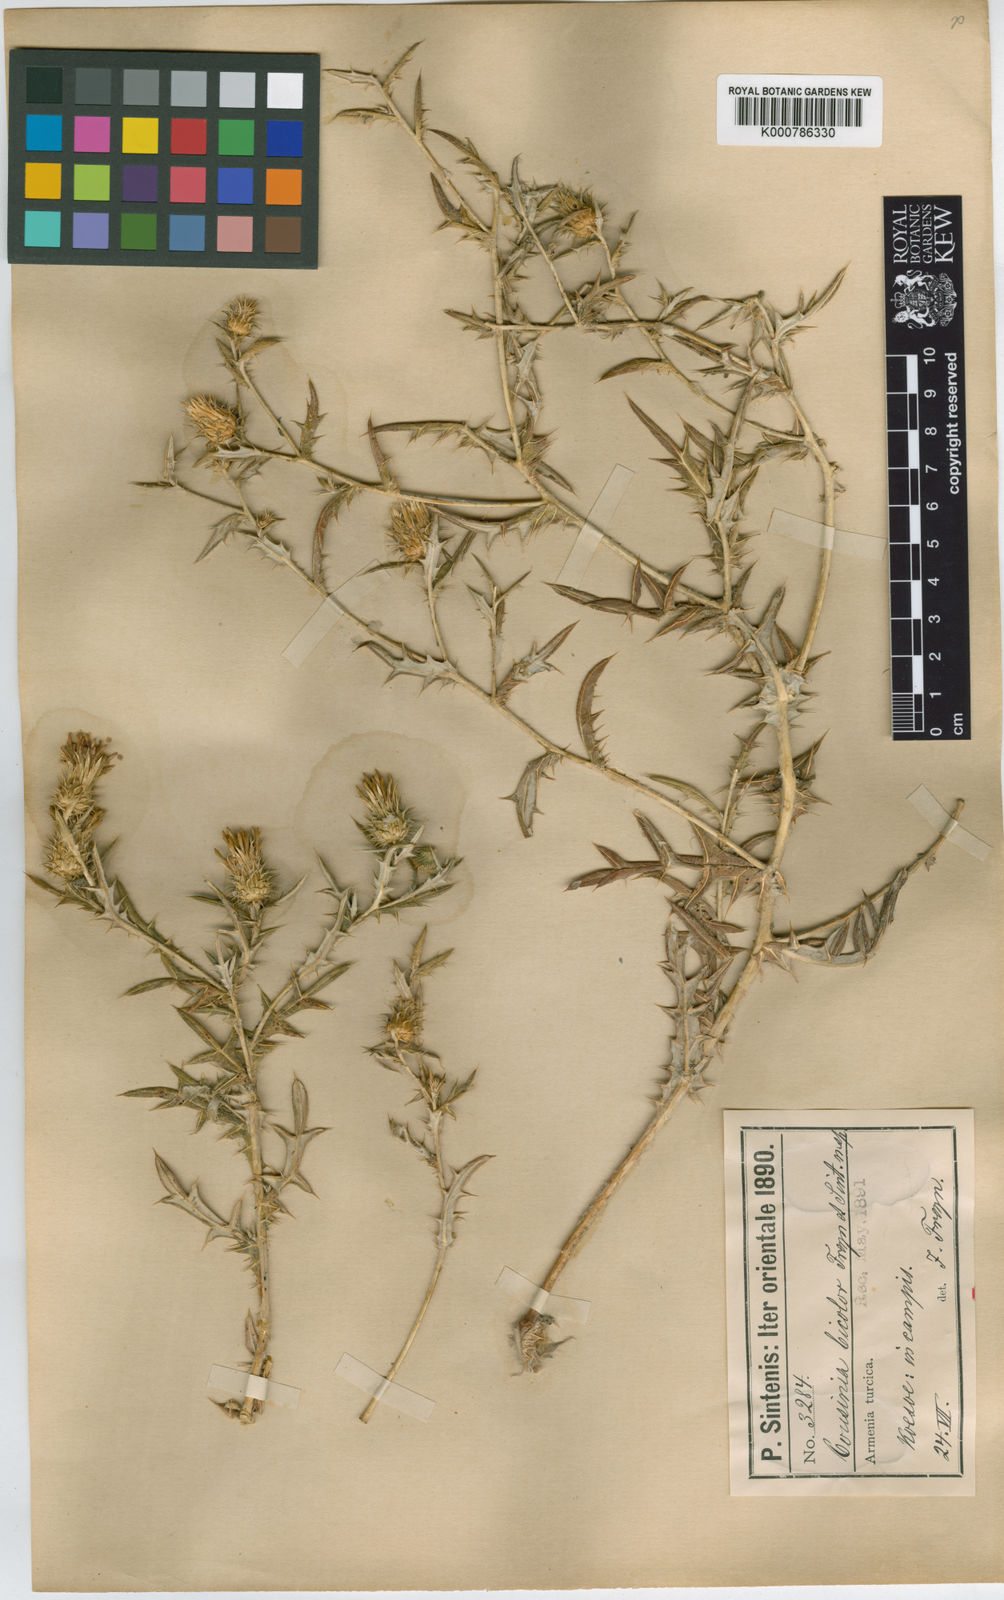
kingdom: Plantae
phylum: Tracheophyta
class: Magnoliopsida
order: Asterales
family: Asteraceae
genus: Cousinia
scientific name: Cousinia bicolor
